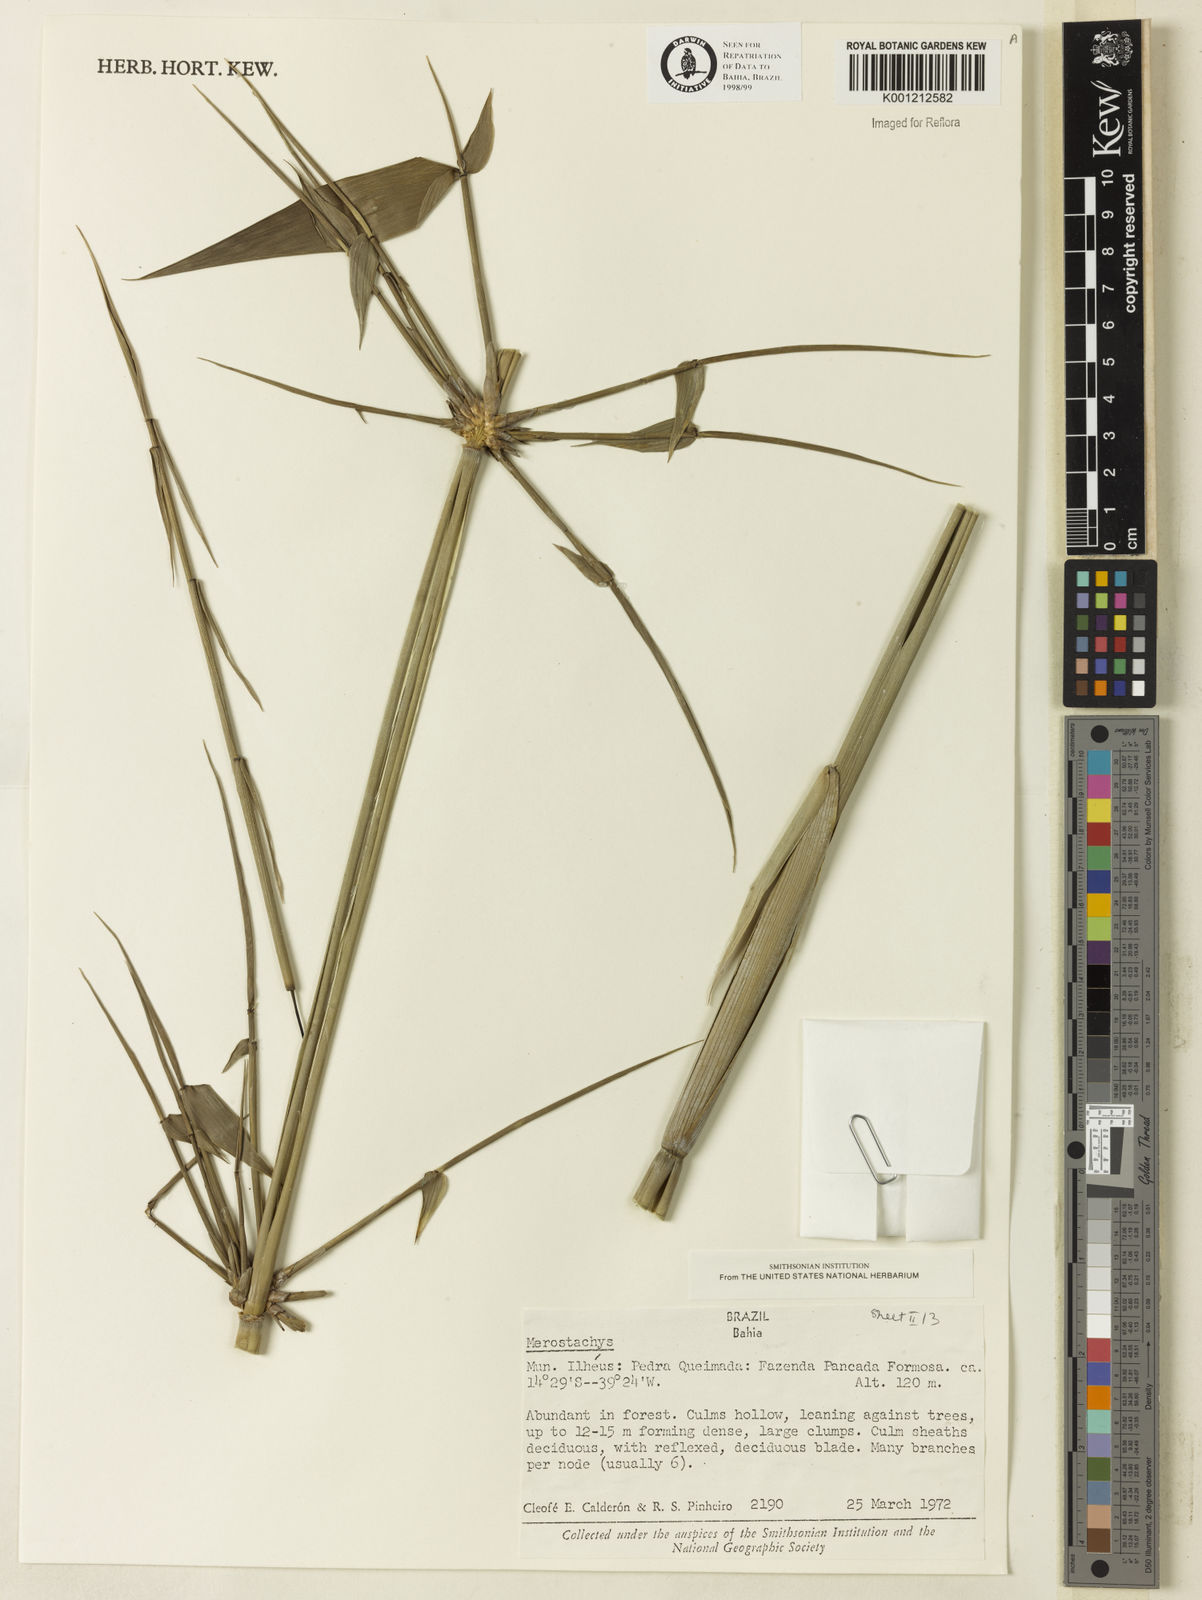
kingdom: Plantae
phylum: Tracheophyta
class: Liliopsida
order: Poales
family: Poaceae
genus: Merostachys
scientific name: Merostachys
